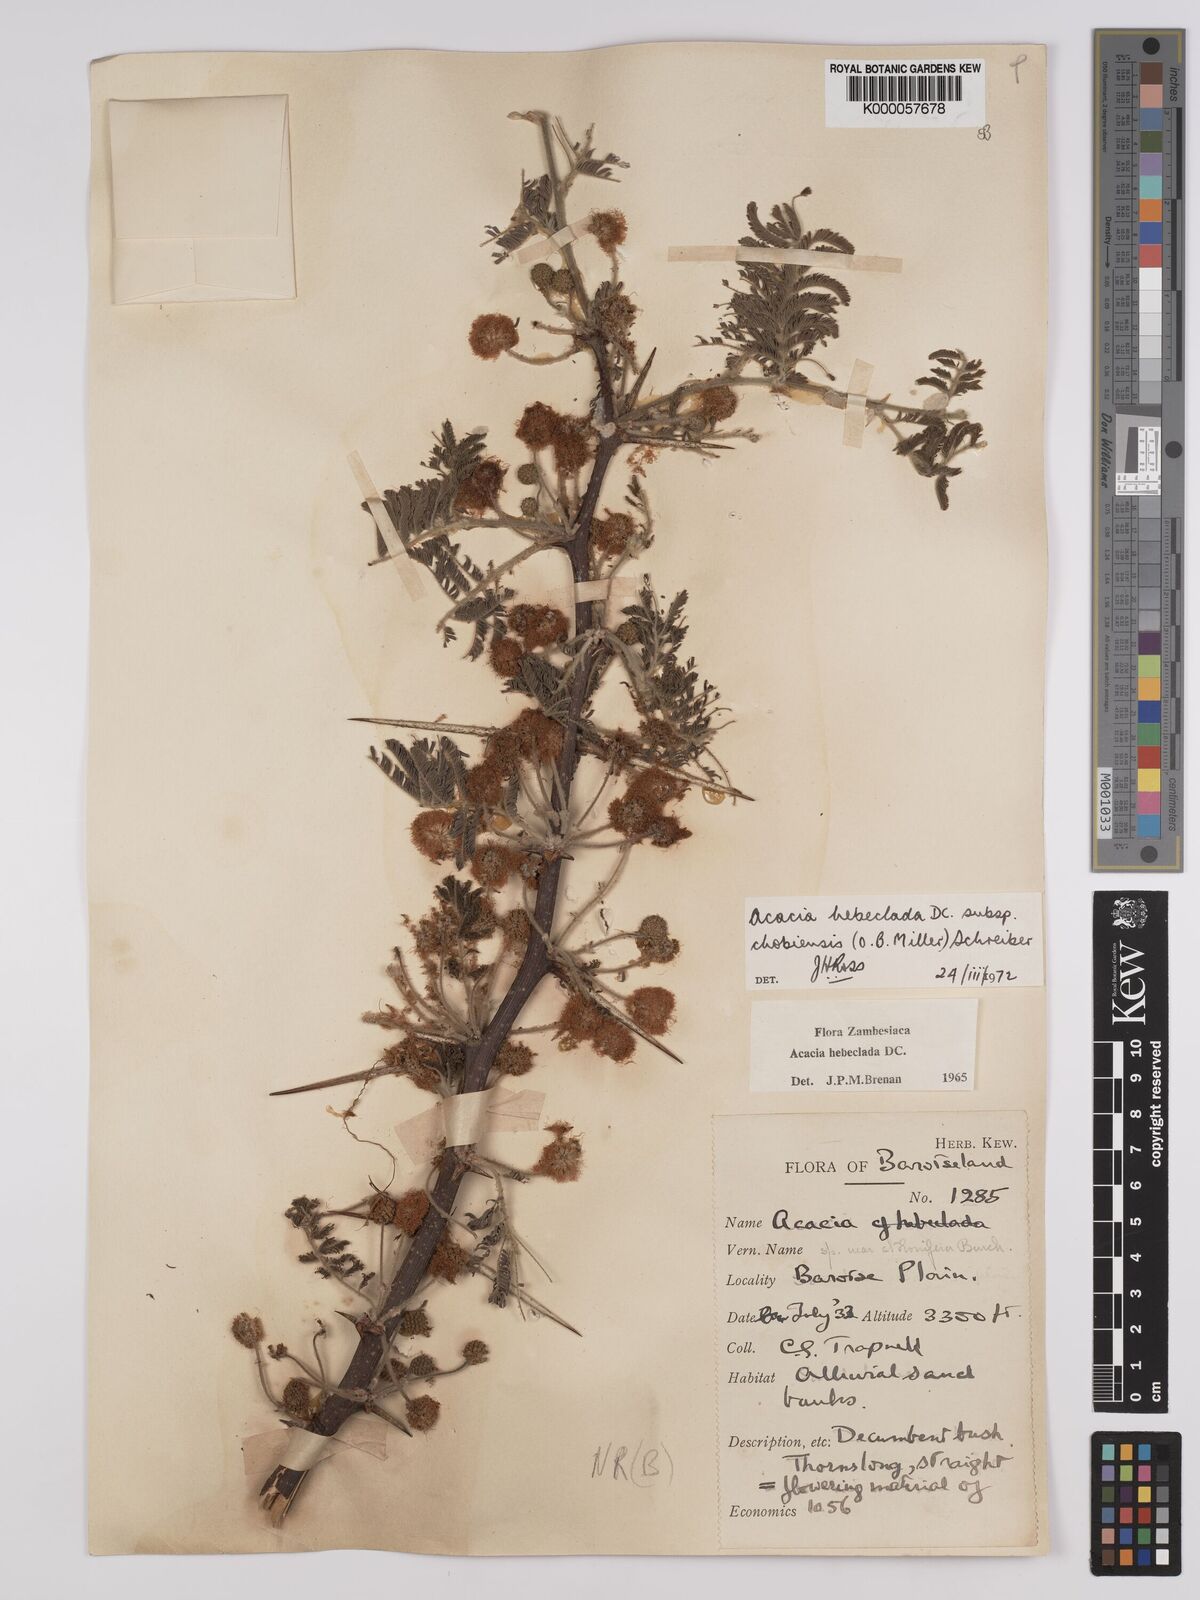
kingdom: Plantae
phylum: Tracheophyta
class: Magnoliopsida
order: Fabales
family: Fabaceae
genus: Vachellia
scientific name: Vachellia hebeclada
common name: Candle thorn
